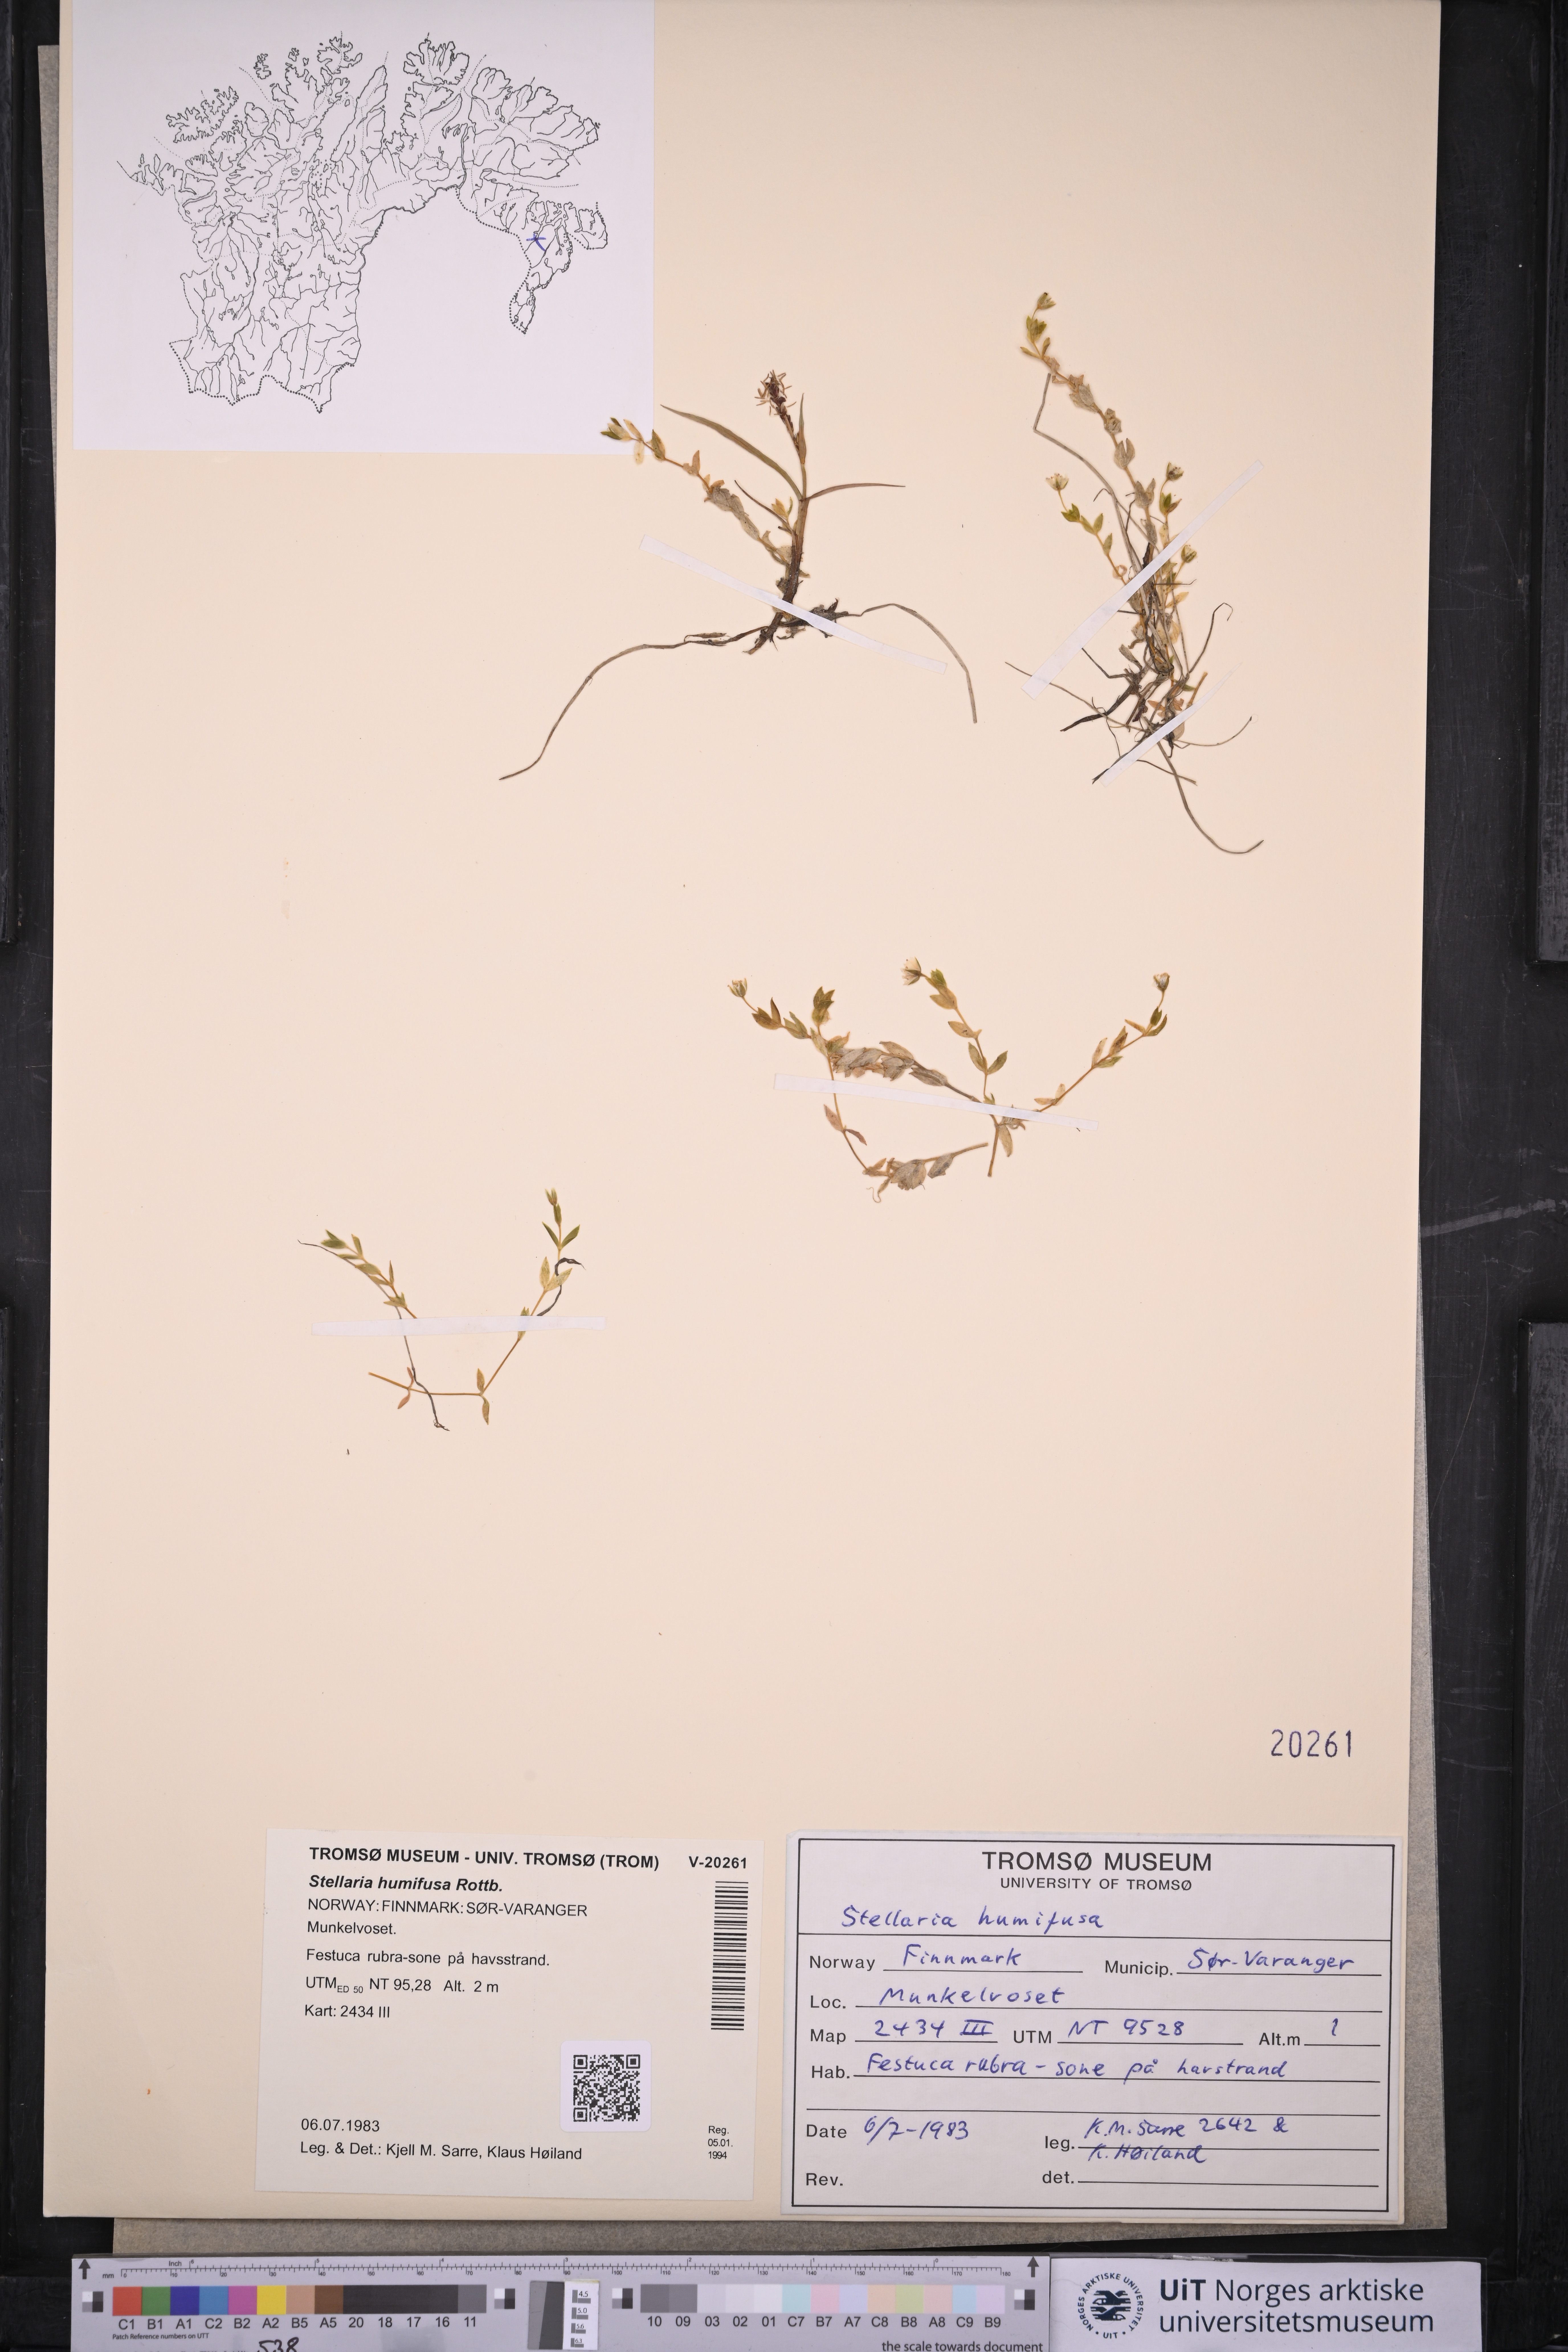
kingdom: Plantae
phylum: Tracheophyta
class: Magnoliopsida
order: Caryophyllales
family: Caryophyllaceae
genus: Stellaria
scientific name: Stellaria humifusa
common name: Creeping starwort
